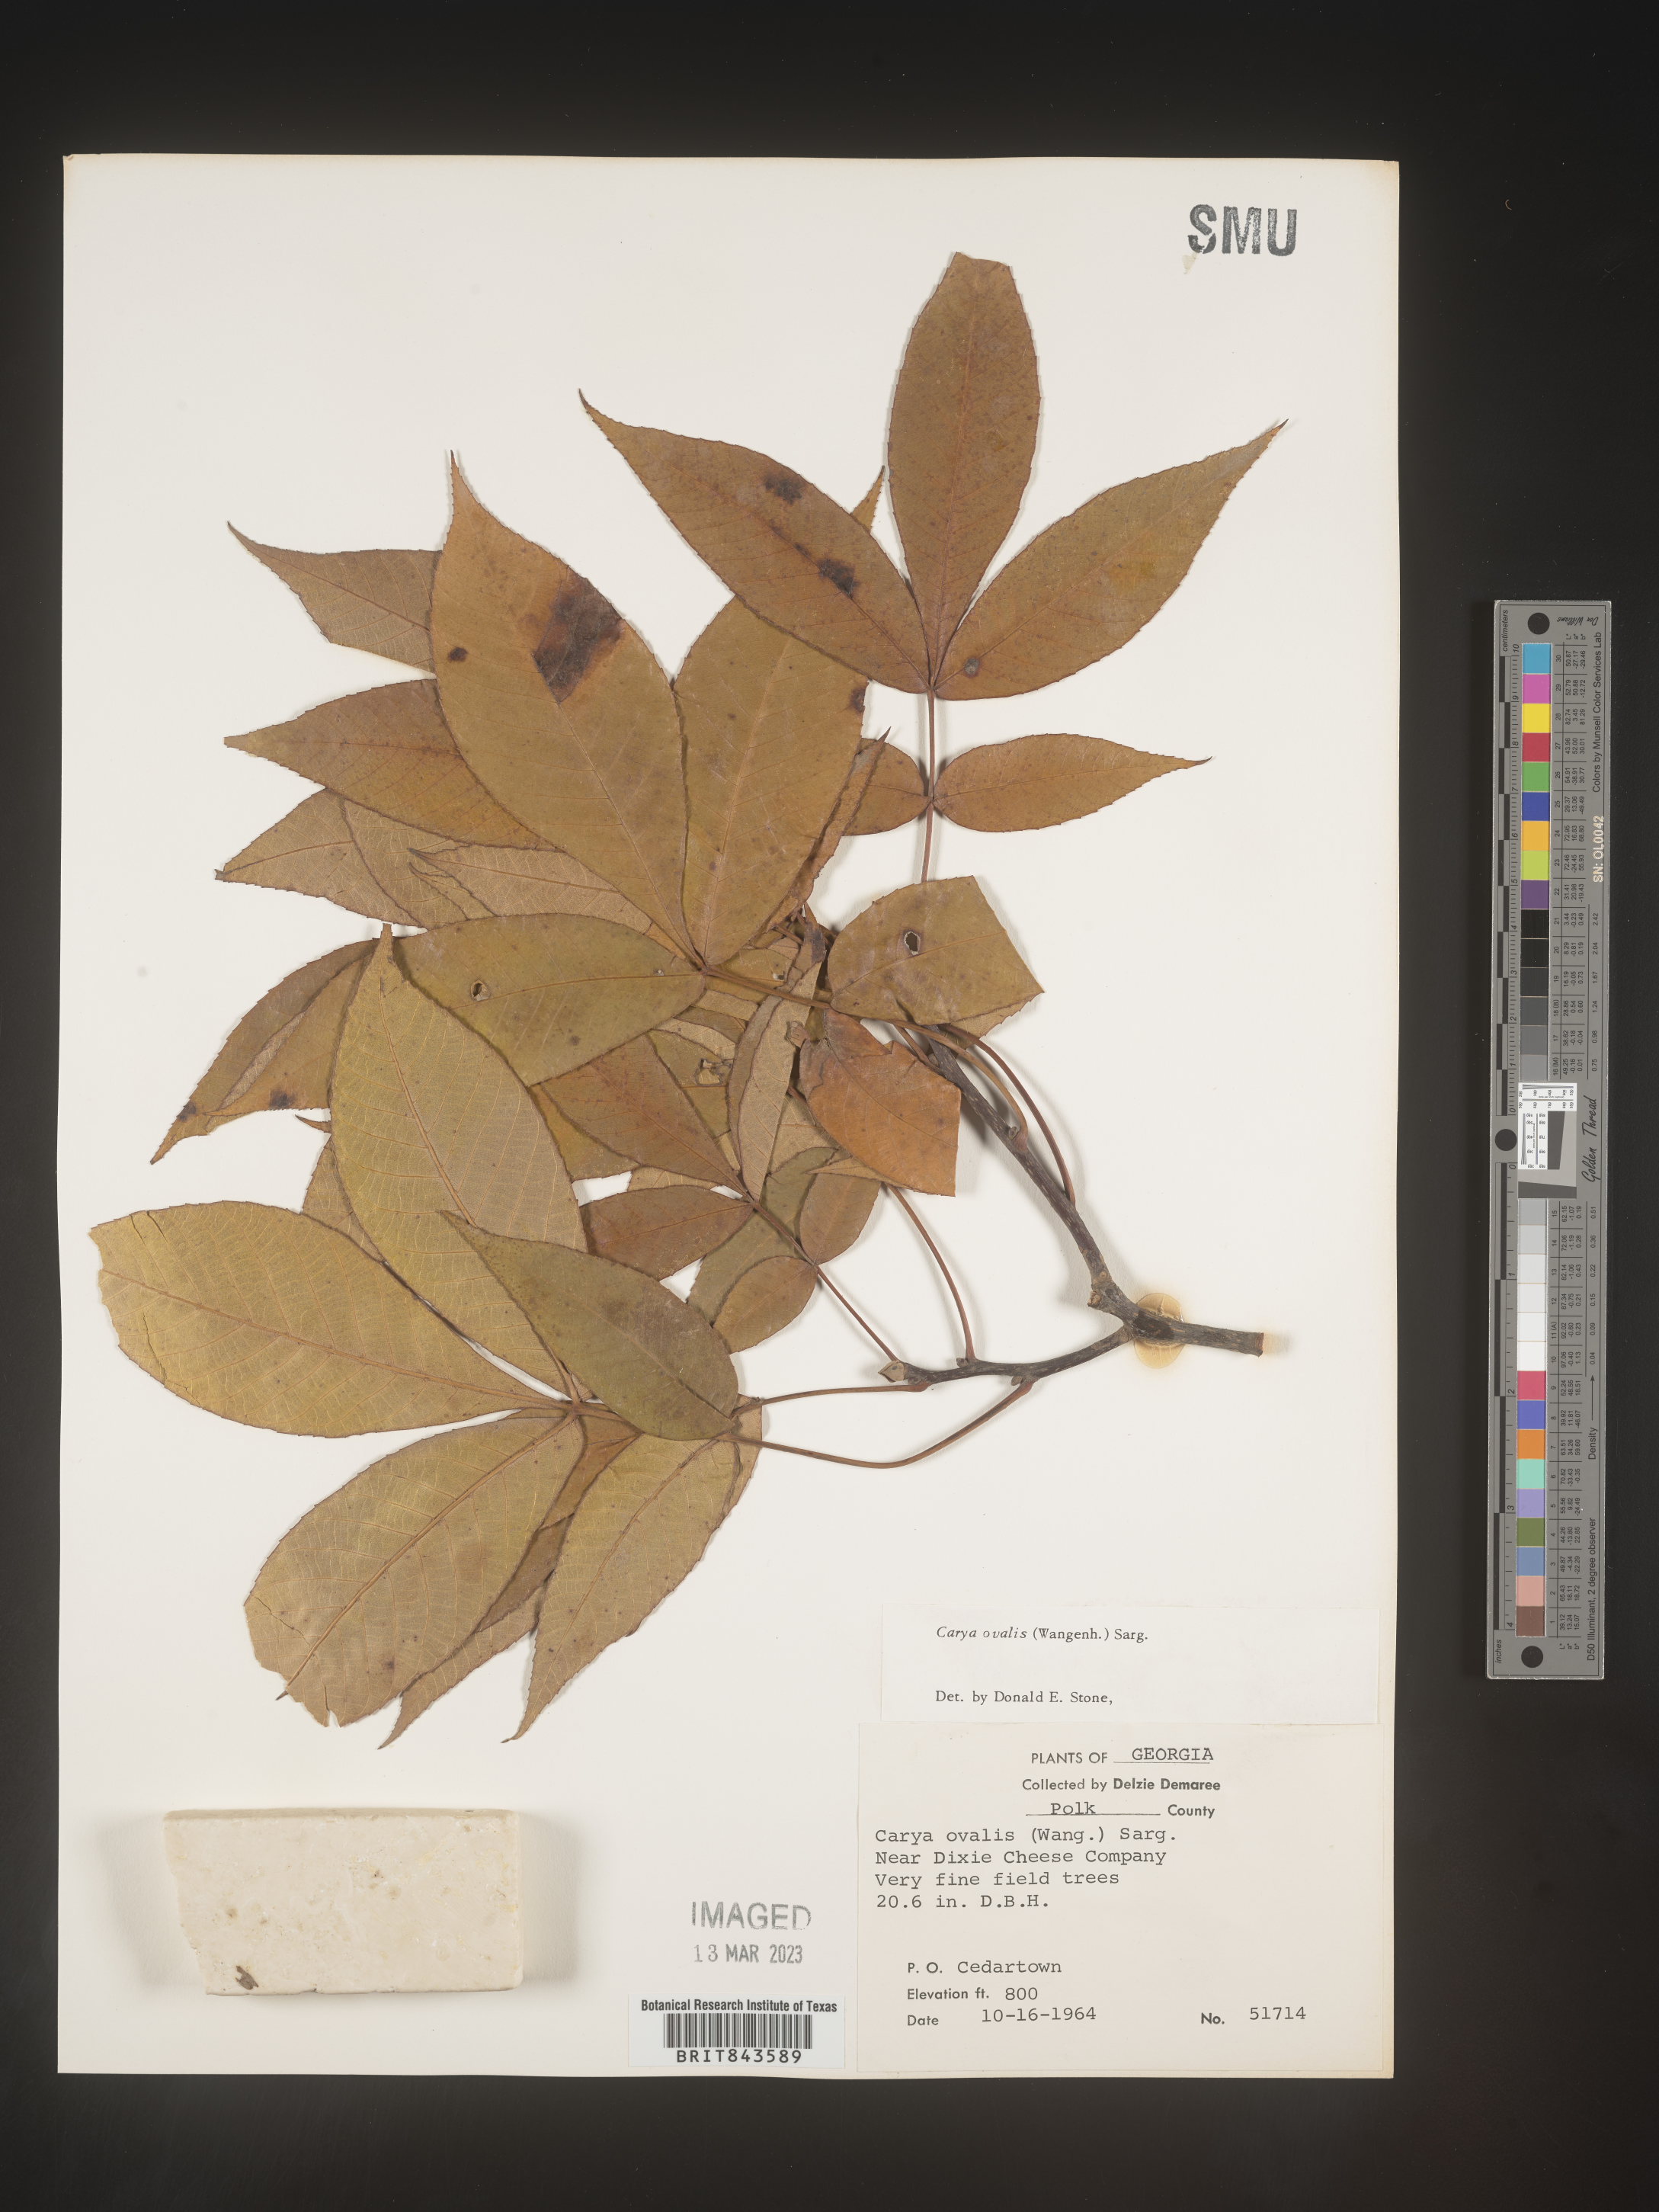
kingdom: Plantae
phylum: Tracheophyta
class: Magnoliopsida
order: Fagales
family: Juglandaceae
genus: Carya
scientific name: Carya ovalis
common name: False shagbark
